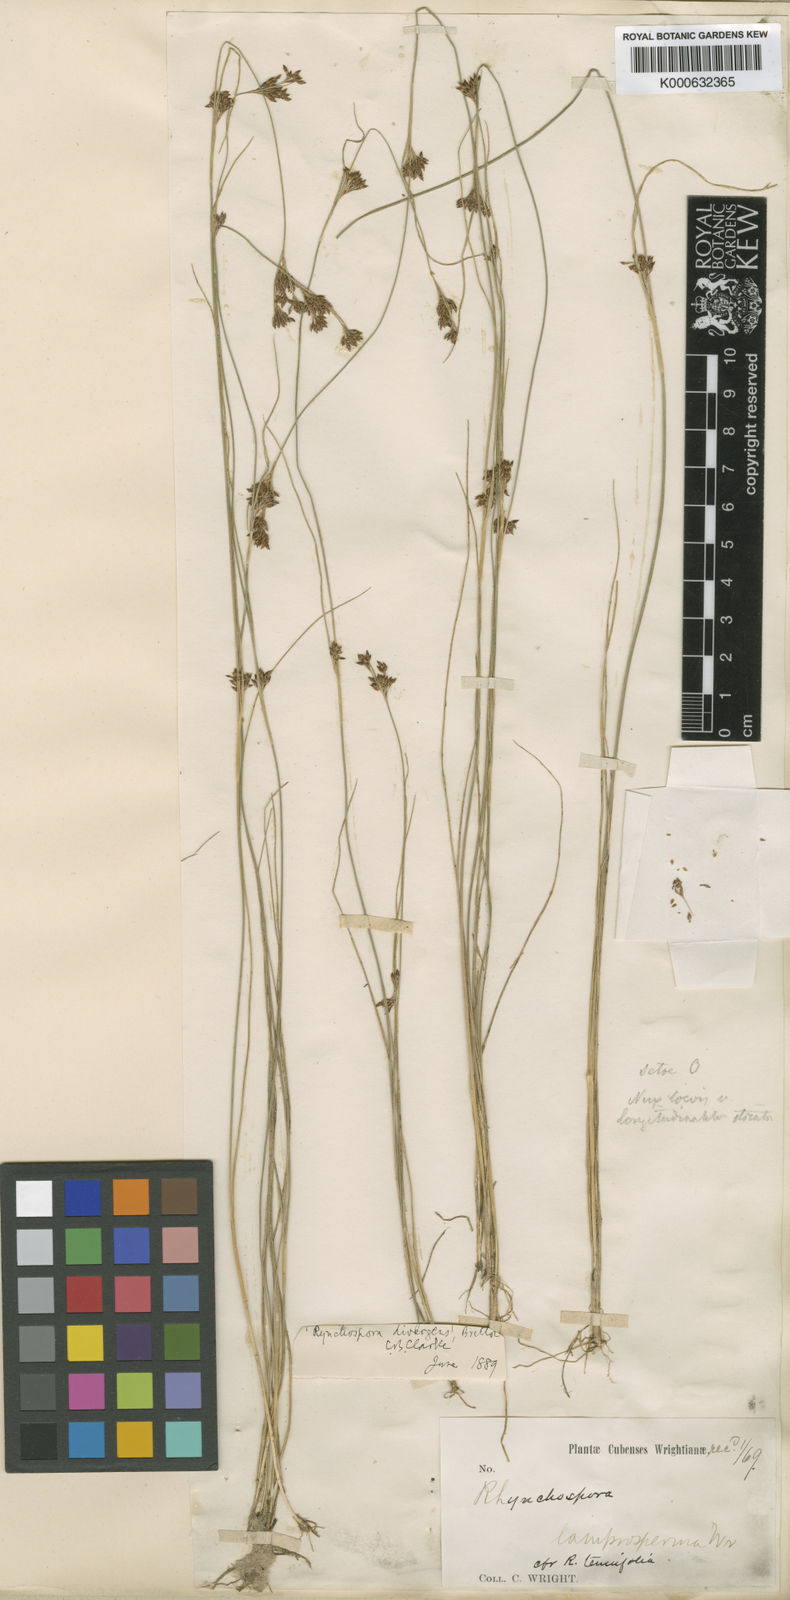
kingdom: Plantae
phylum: Tracheophyta
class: Liliopsida
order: Poales
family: Cyperaceae
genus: Rhynchospora
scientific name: Rhynchospora
